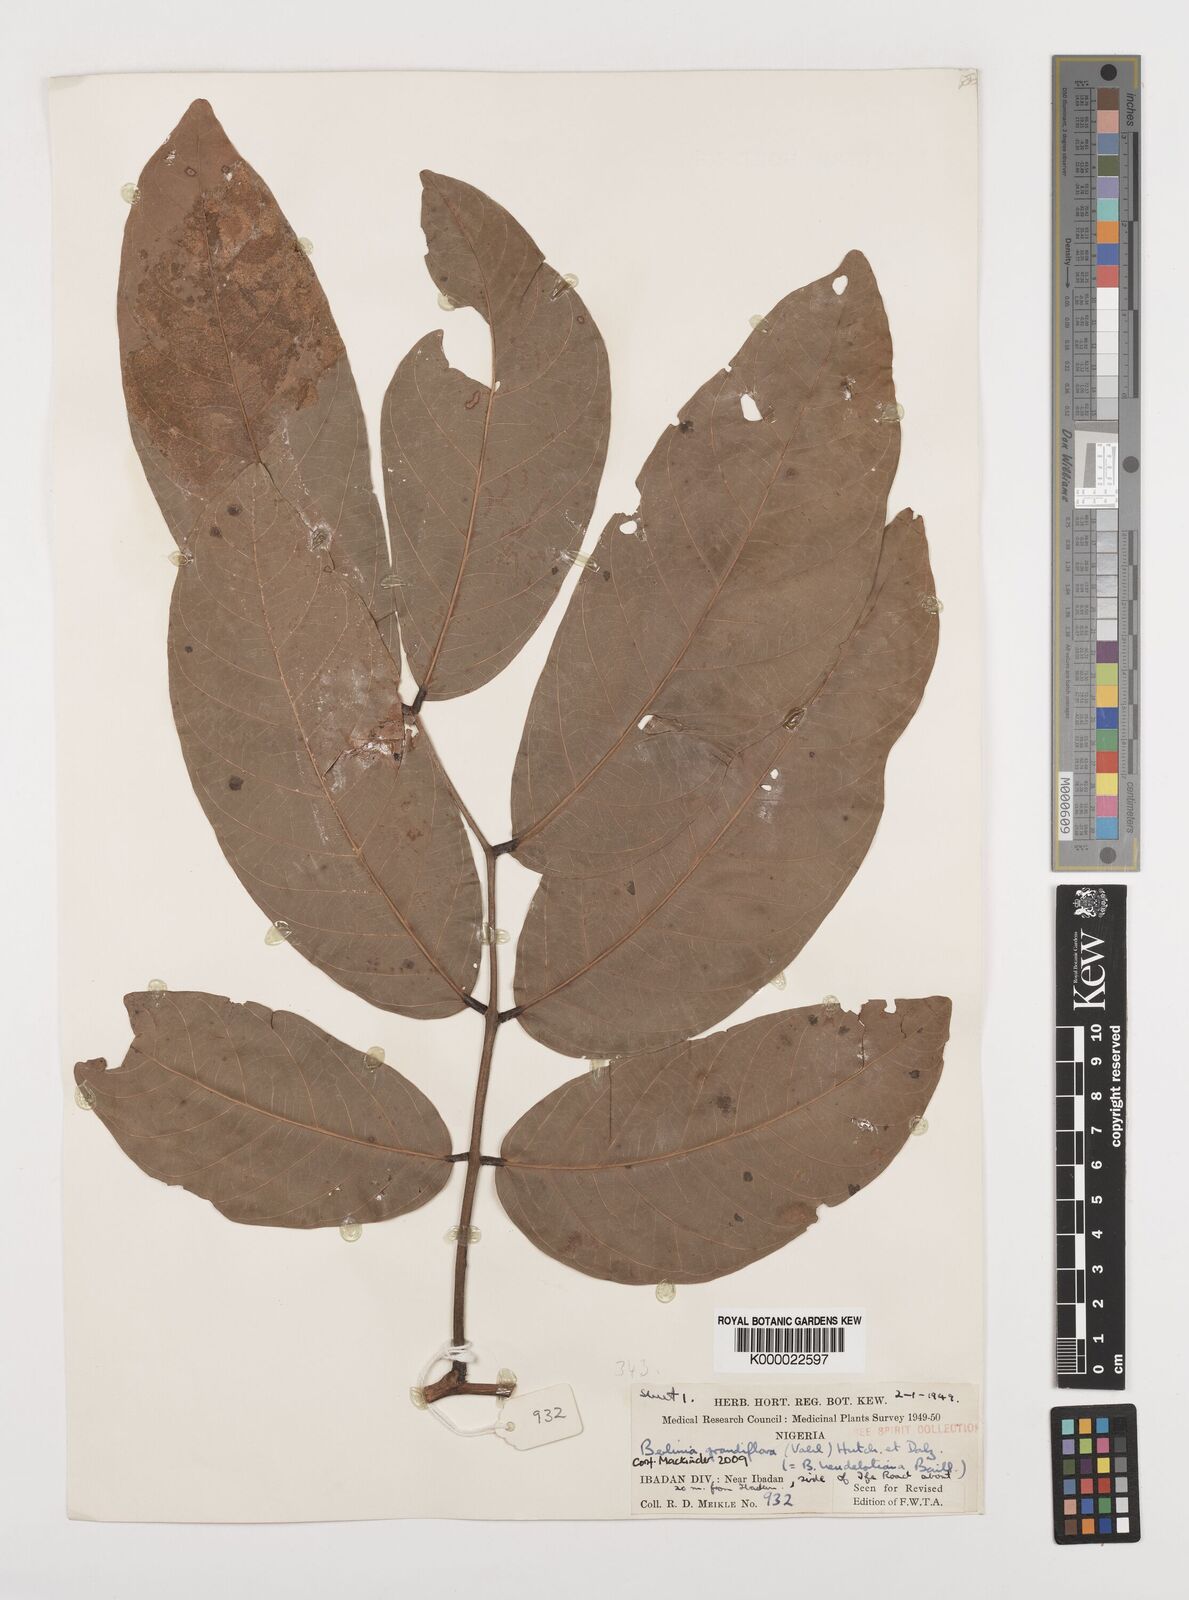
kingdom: Plantae
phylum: Tracheophyta
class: Magnoliopsida
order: Fabales
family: Fabaceae
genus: Berlinia
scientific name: Berlinia grandiflora
